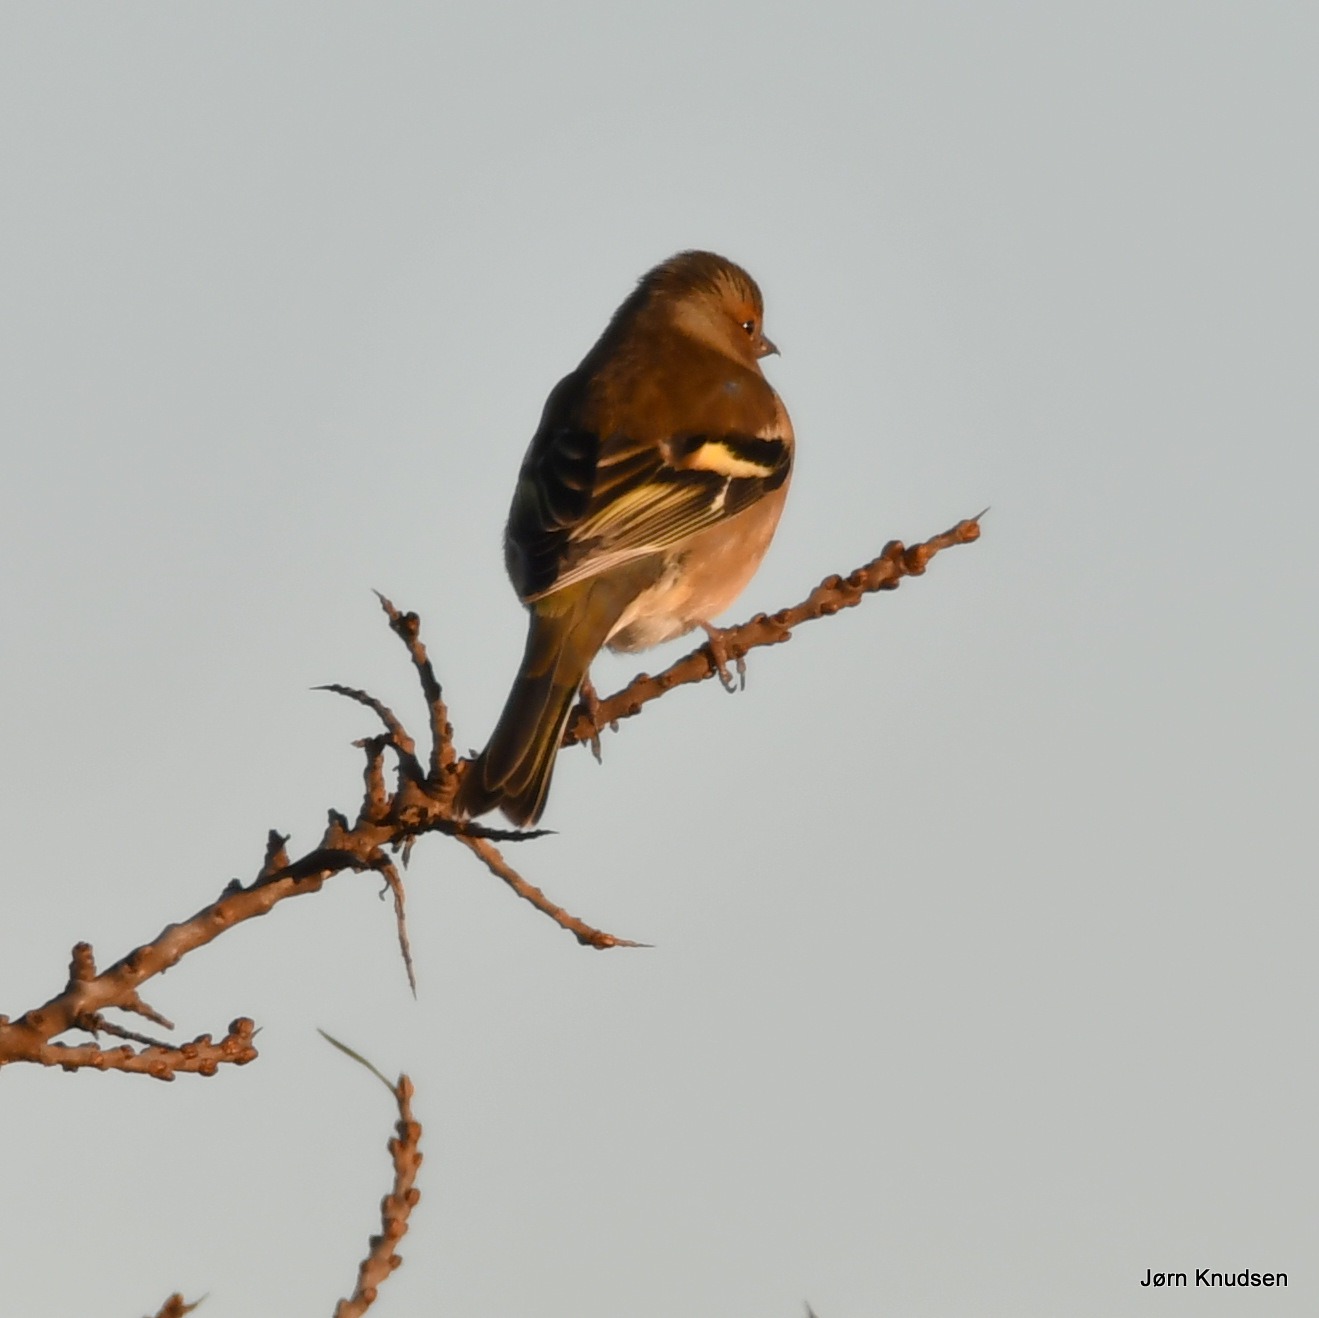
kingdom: Animalia
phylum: Chordata
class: Aves
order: Passeriformes
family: Fringillidae
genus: Fringilla
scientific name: Fringilla coelebs
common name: Bogfinke
